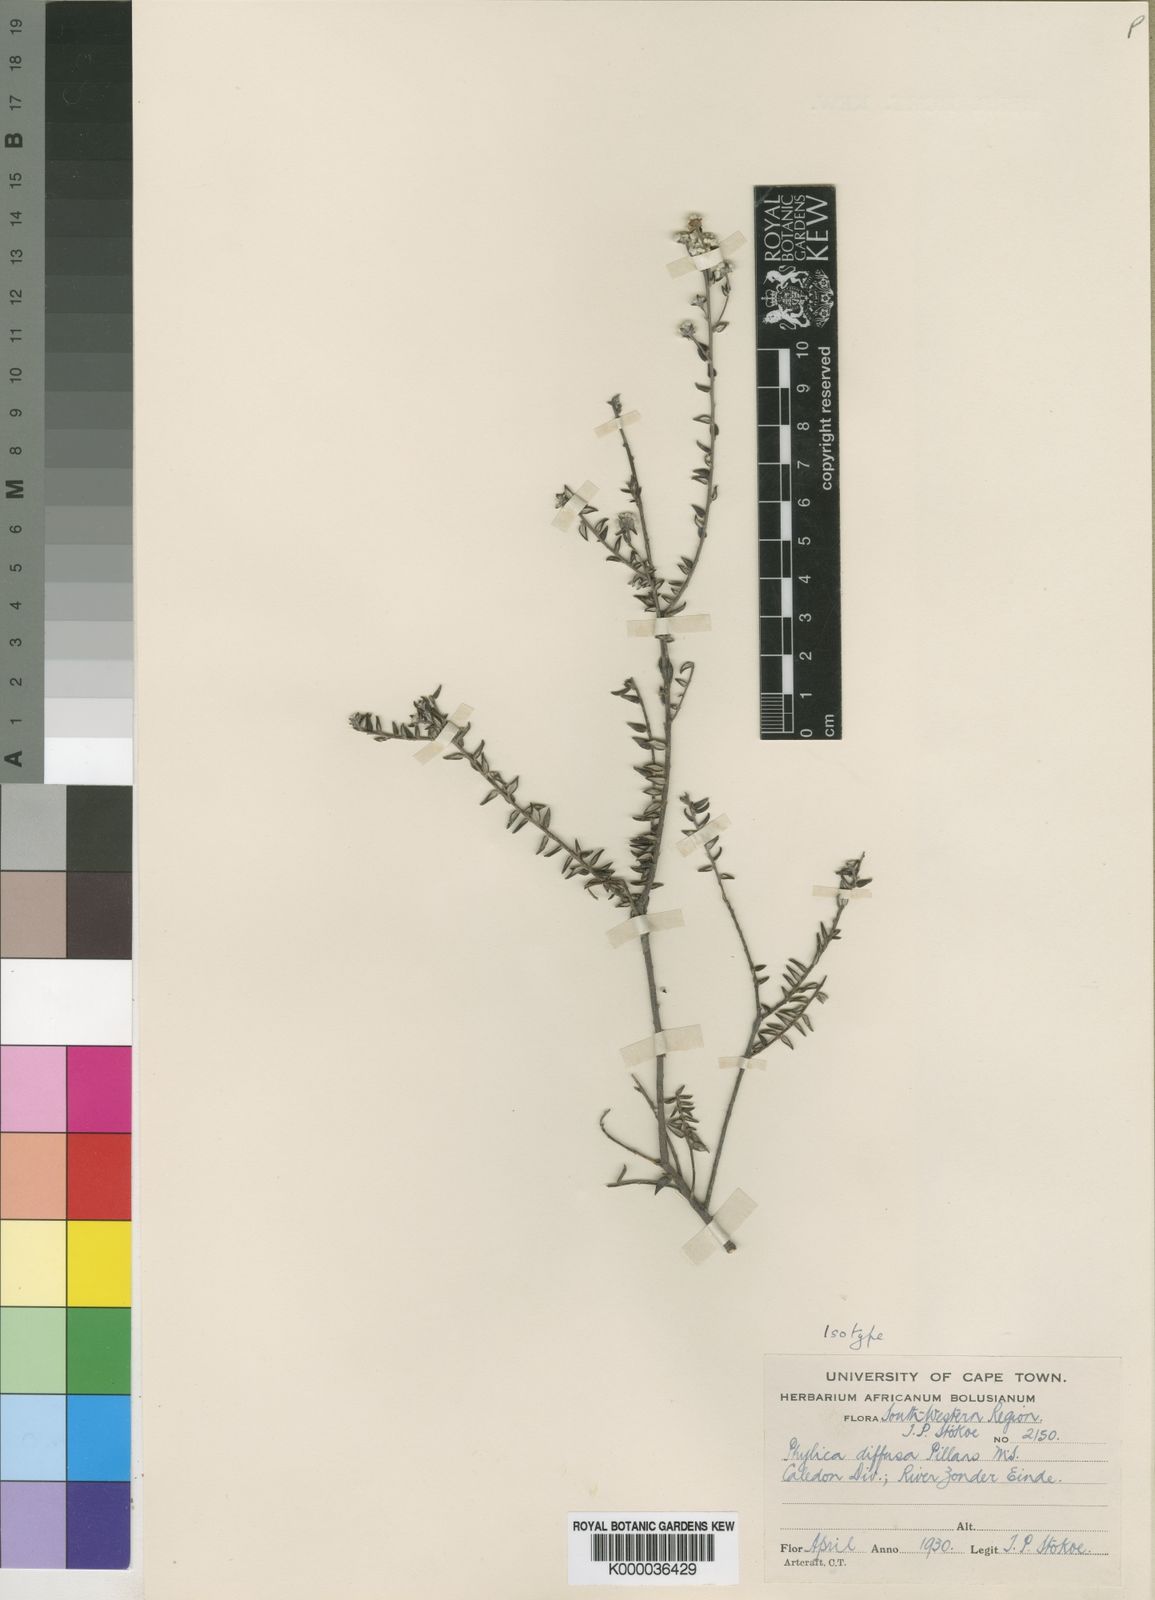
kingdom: Plantae
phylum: Tracheophyta
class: Magnoliopsida
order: Rosales
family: Rhamnaceae
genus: Phylica
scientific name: Phylica diffusa
